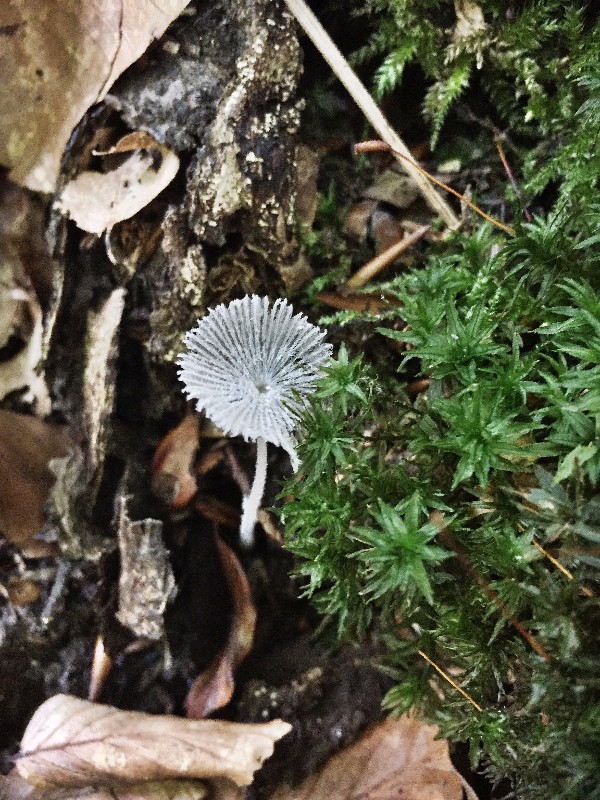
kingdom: Fungi
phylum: Basidiomycota
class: Agaricomycetes
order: Agaricales
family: Psathyrellaceae
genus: Coprinopsis
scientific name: Coprinopsis
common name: blækhat
